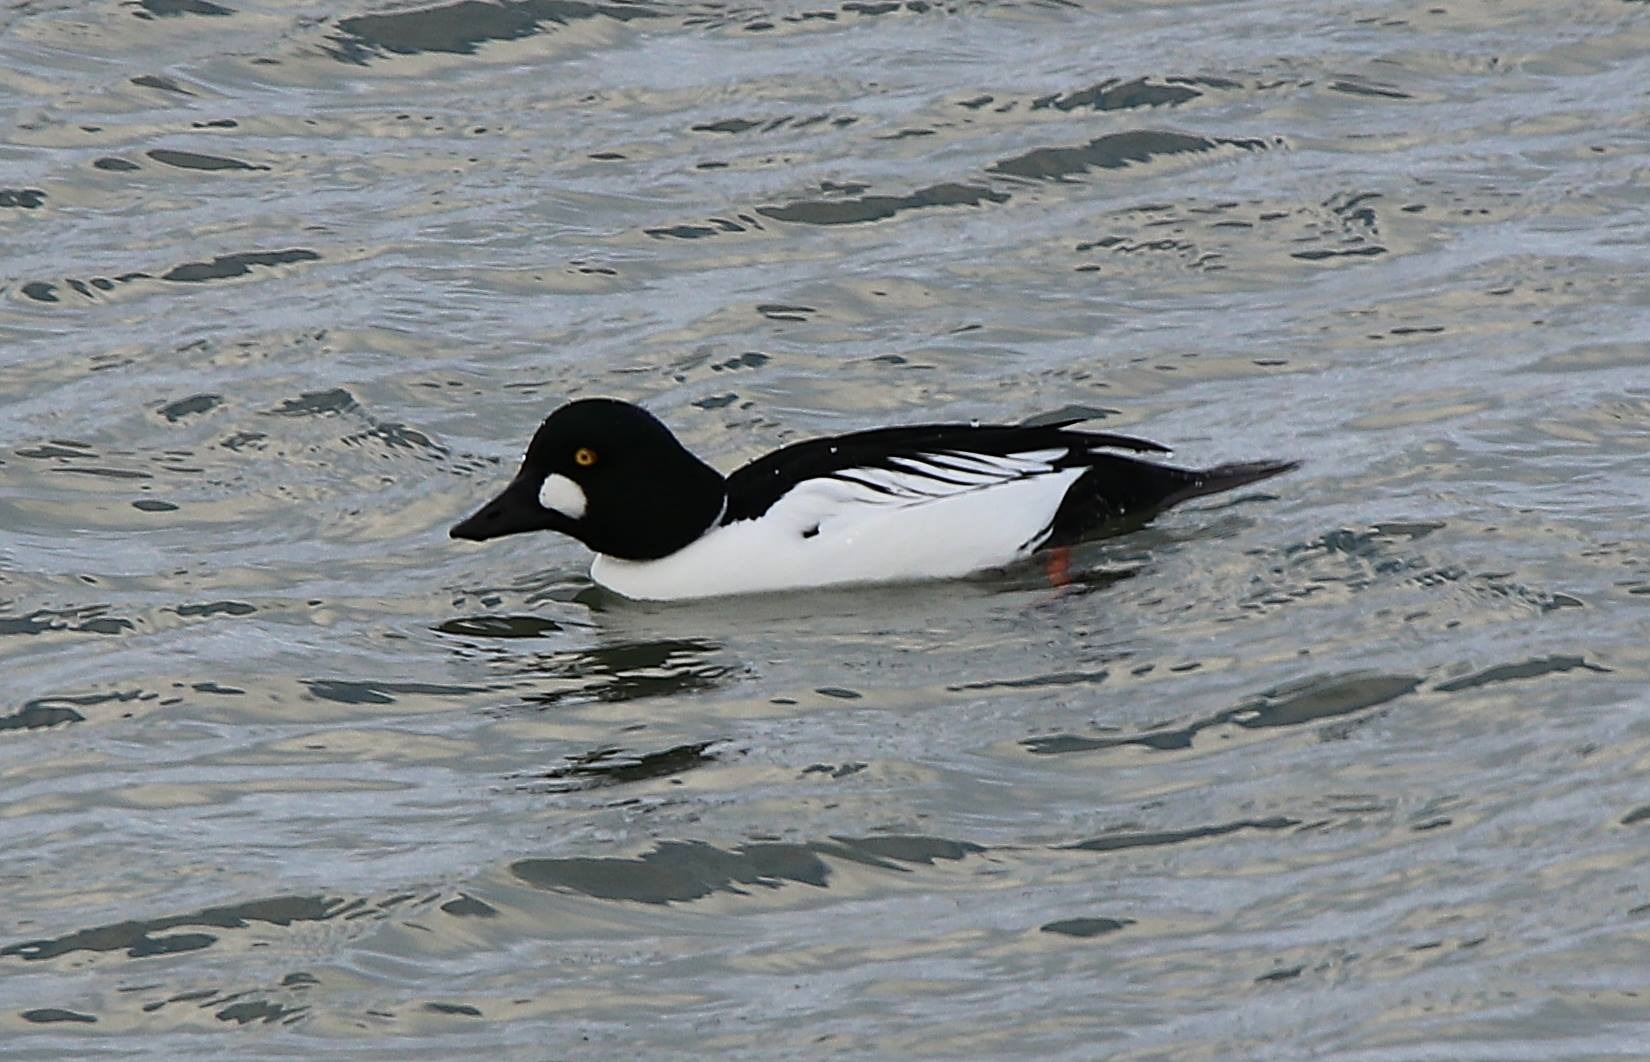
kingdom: Animalia
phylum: Chordata
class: Aves
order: Anseriformes
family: Anatidae
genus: Bucephala
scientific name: Bucephala clangula
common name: Hvinand
